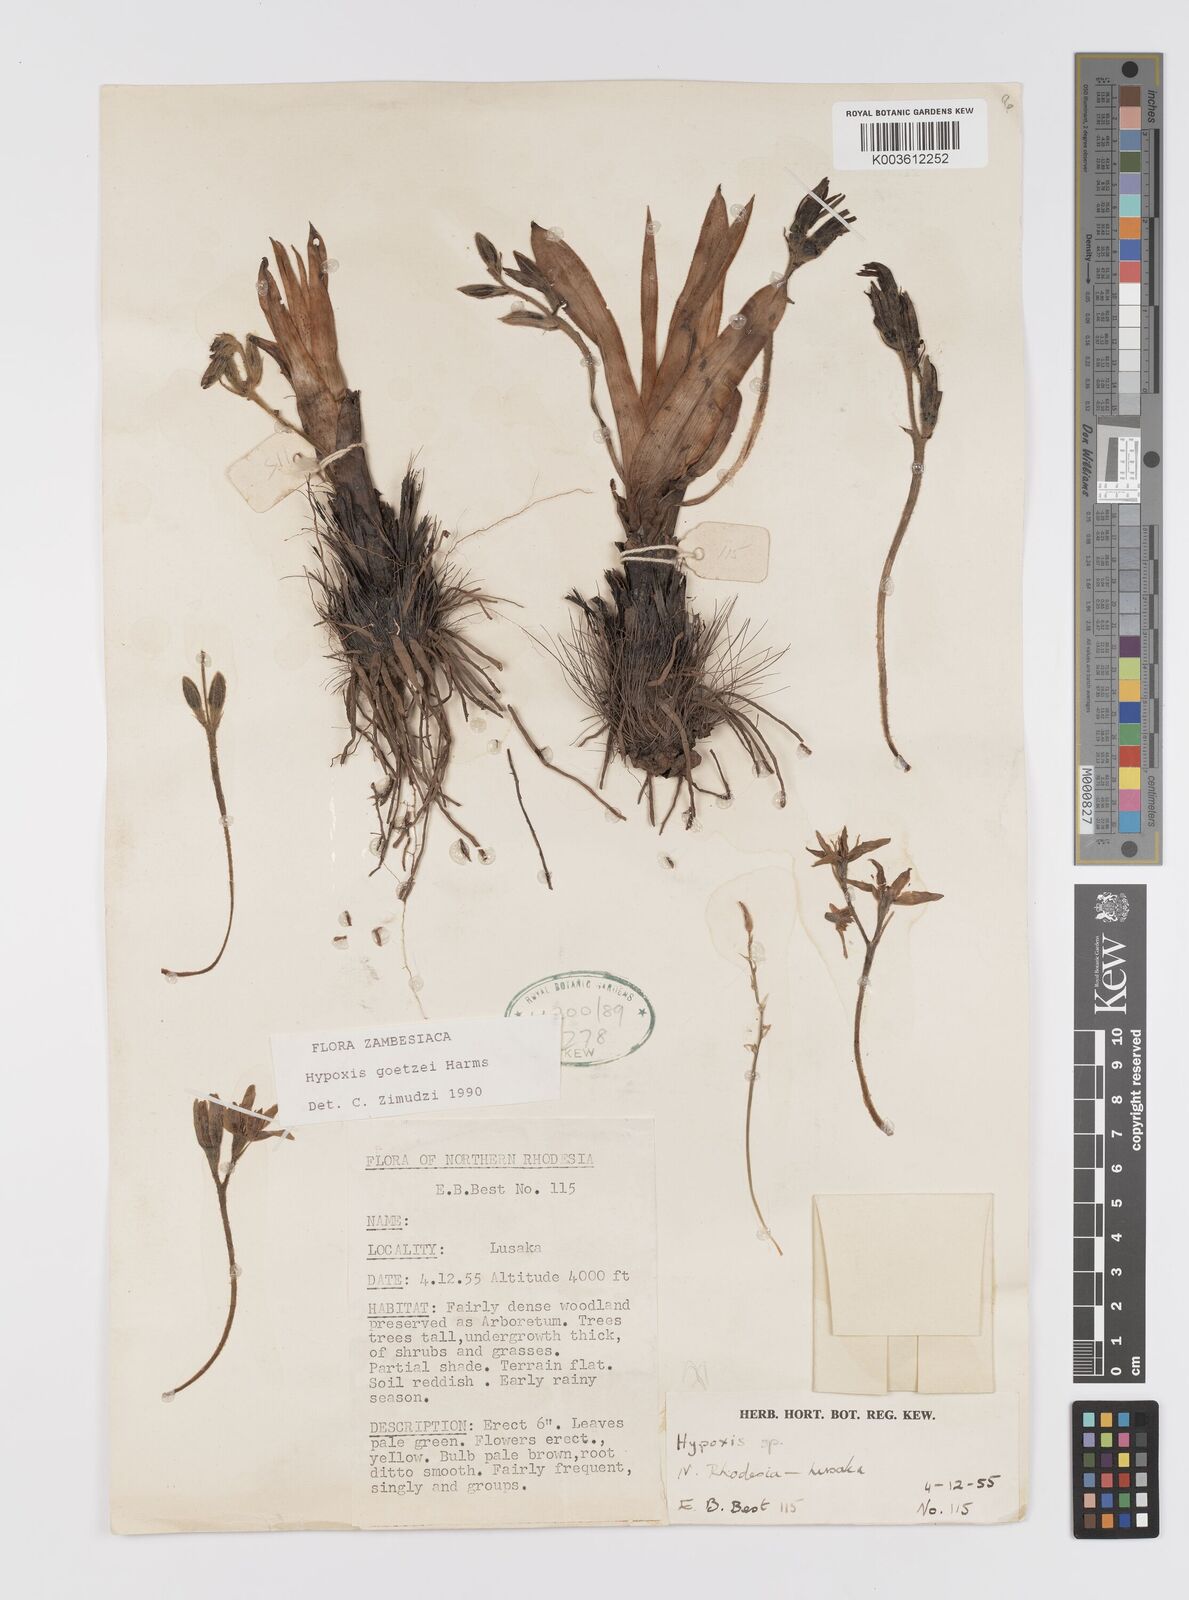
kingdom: Plantae
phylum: Tracheophyta
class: Liliopsida
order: Asparagales
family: Hypoxidaceae
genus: Hypoxis
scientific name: Hypoxis goetzei
